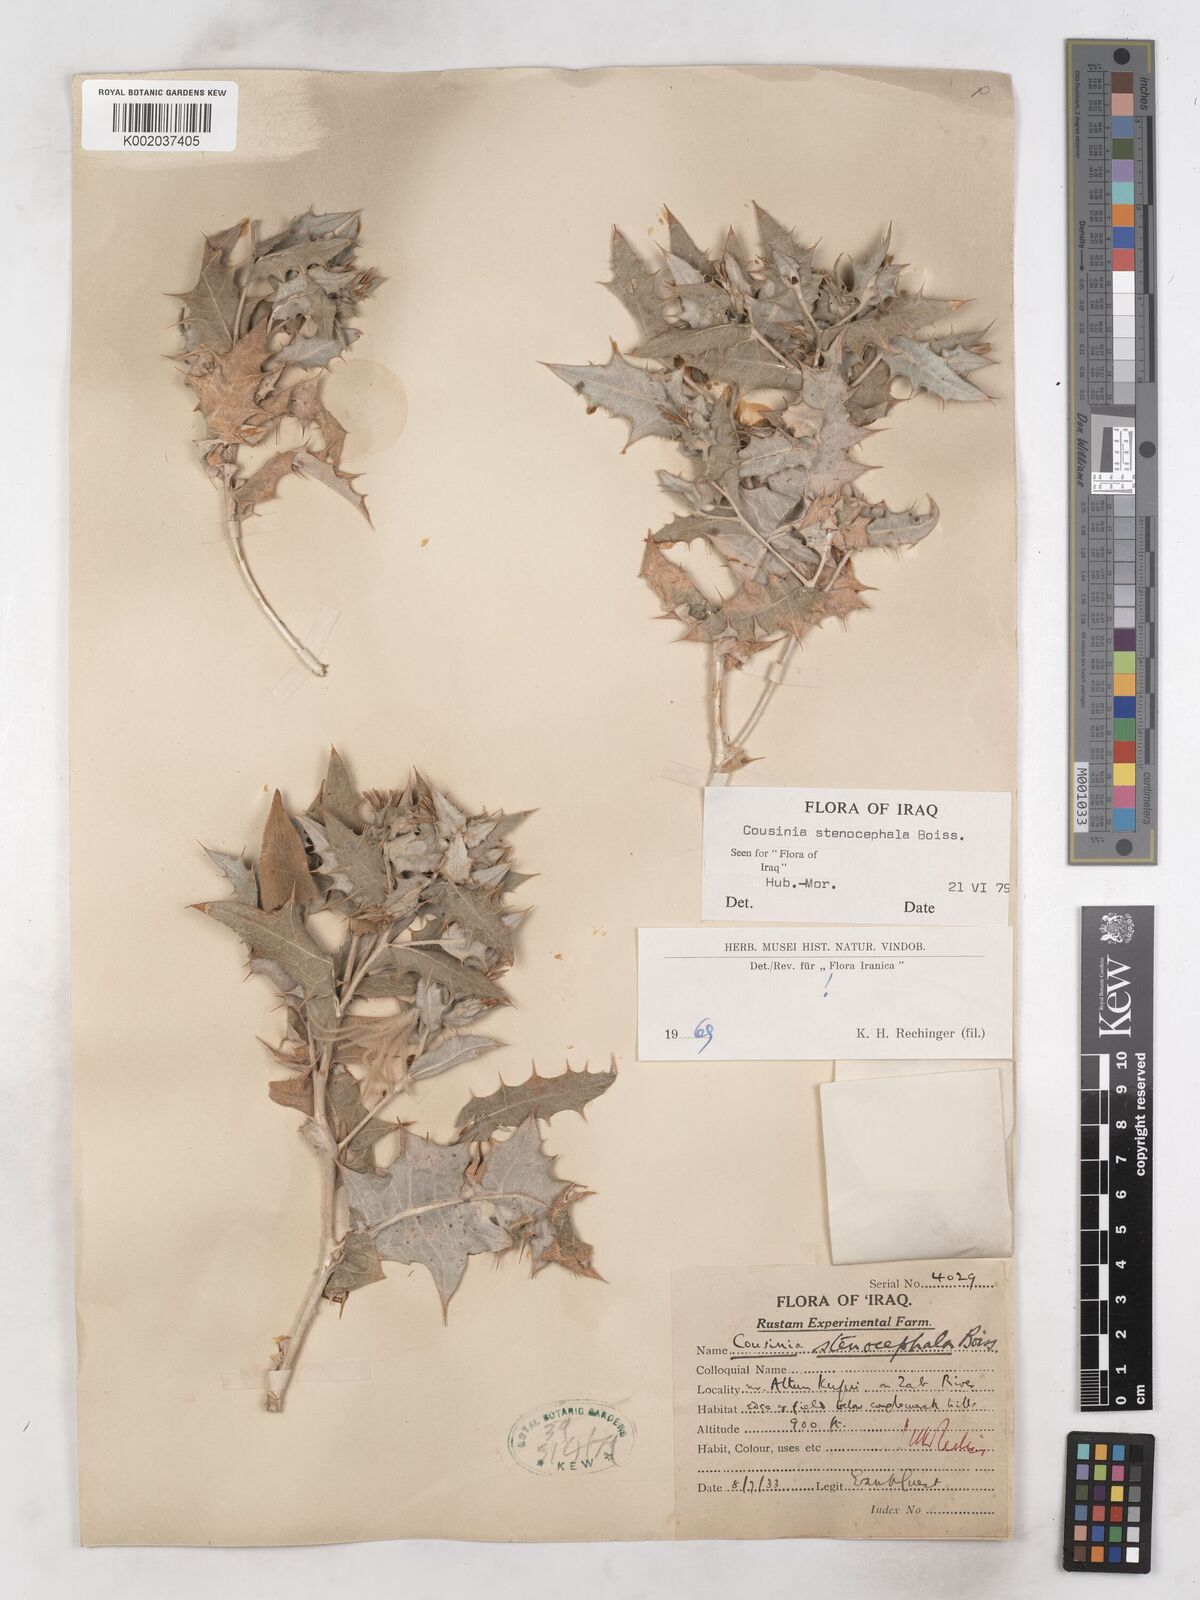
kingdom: Plantae
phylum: Tracheophyta
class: Magnoliopsida
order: Asterales
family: Asteraceae
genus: Cousinia
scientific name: Cousinia stenocephala
